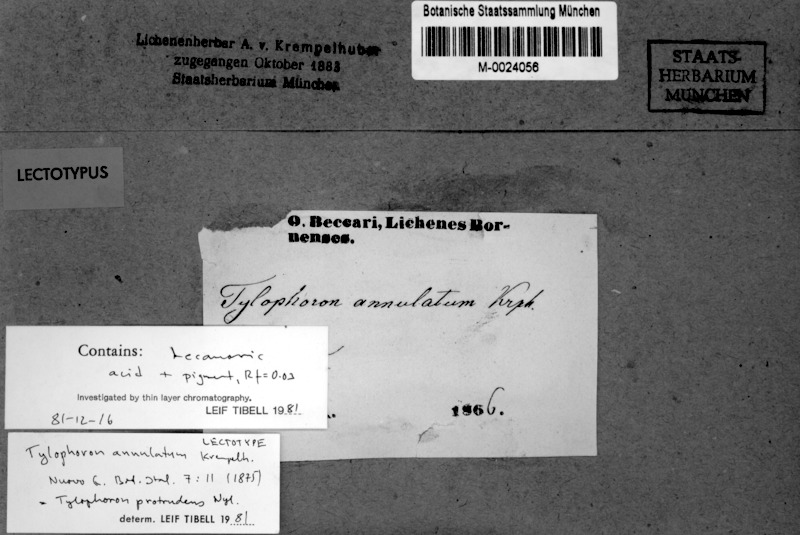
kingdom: Fungi
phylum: Ascomycota
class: Arthoniomycetes
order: Arthoniales
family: Arthoniaceae
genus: Tylophoron
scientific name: Tylophoron protrudens
